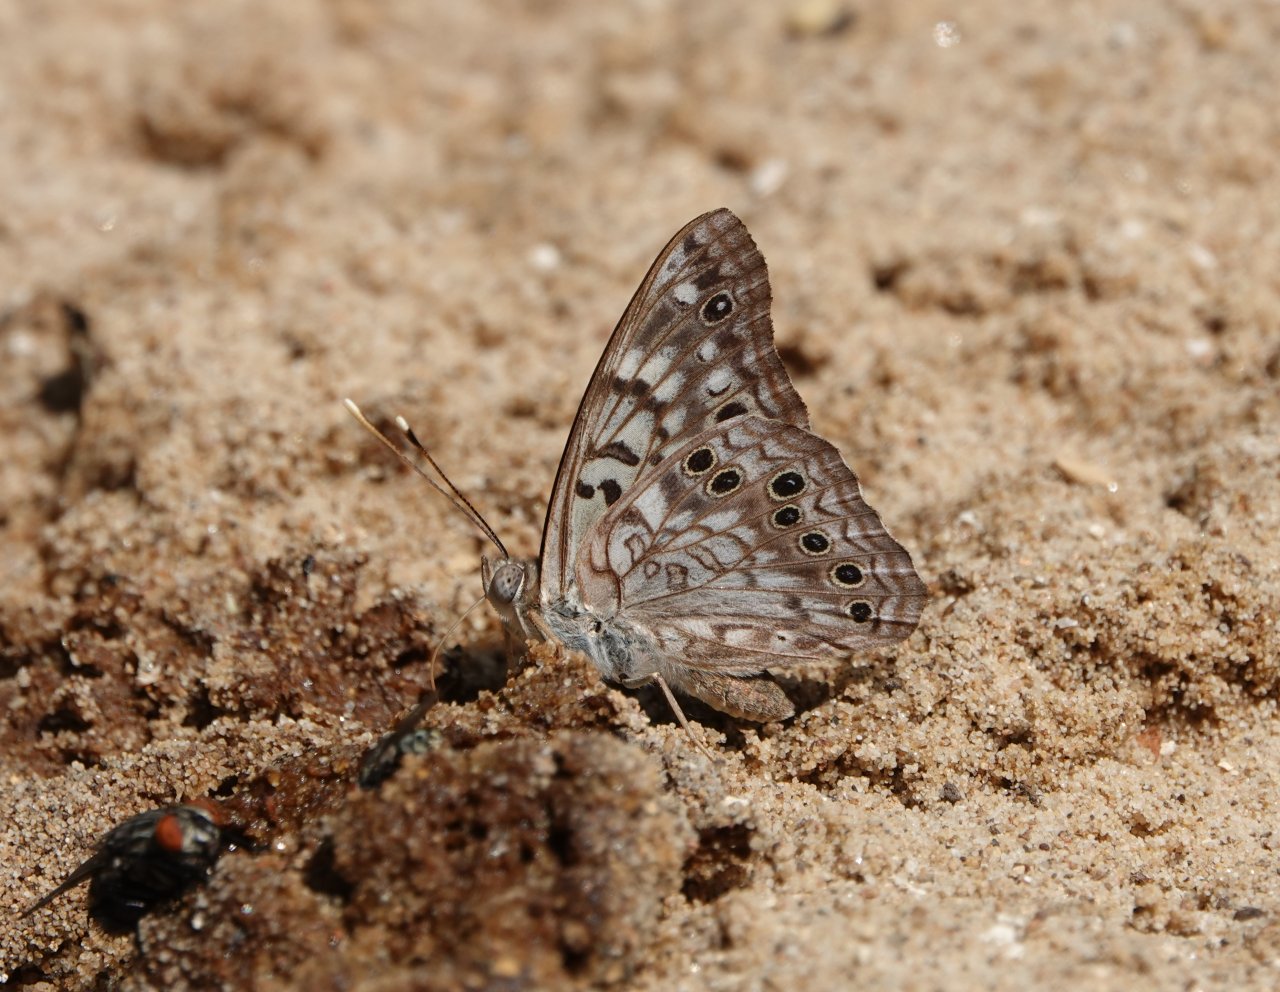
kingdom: Animalia
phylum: Arthropoda
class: Insecta
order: Lepidoptera
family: Nymphalidae
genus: Asterocampa
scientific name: Asterocampa celtis
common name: Hackberry Emperor
